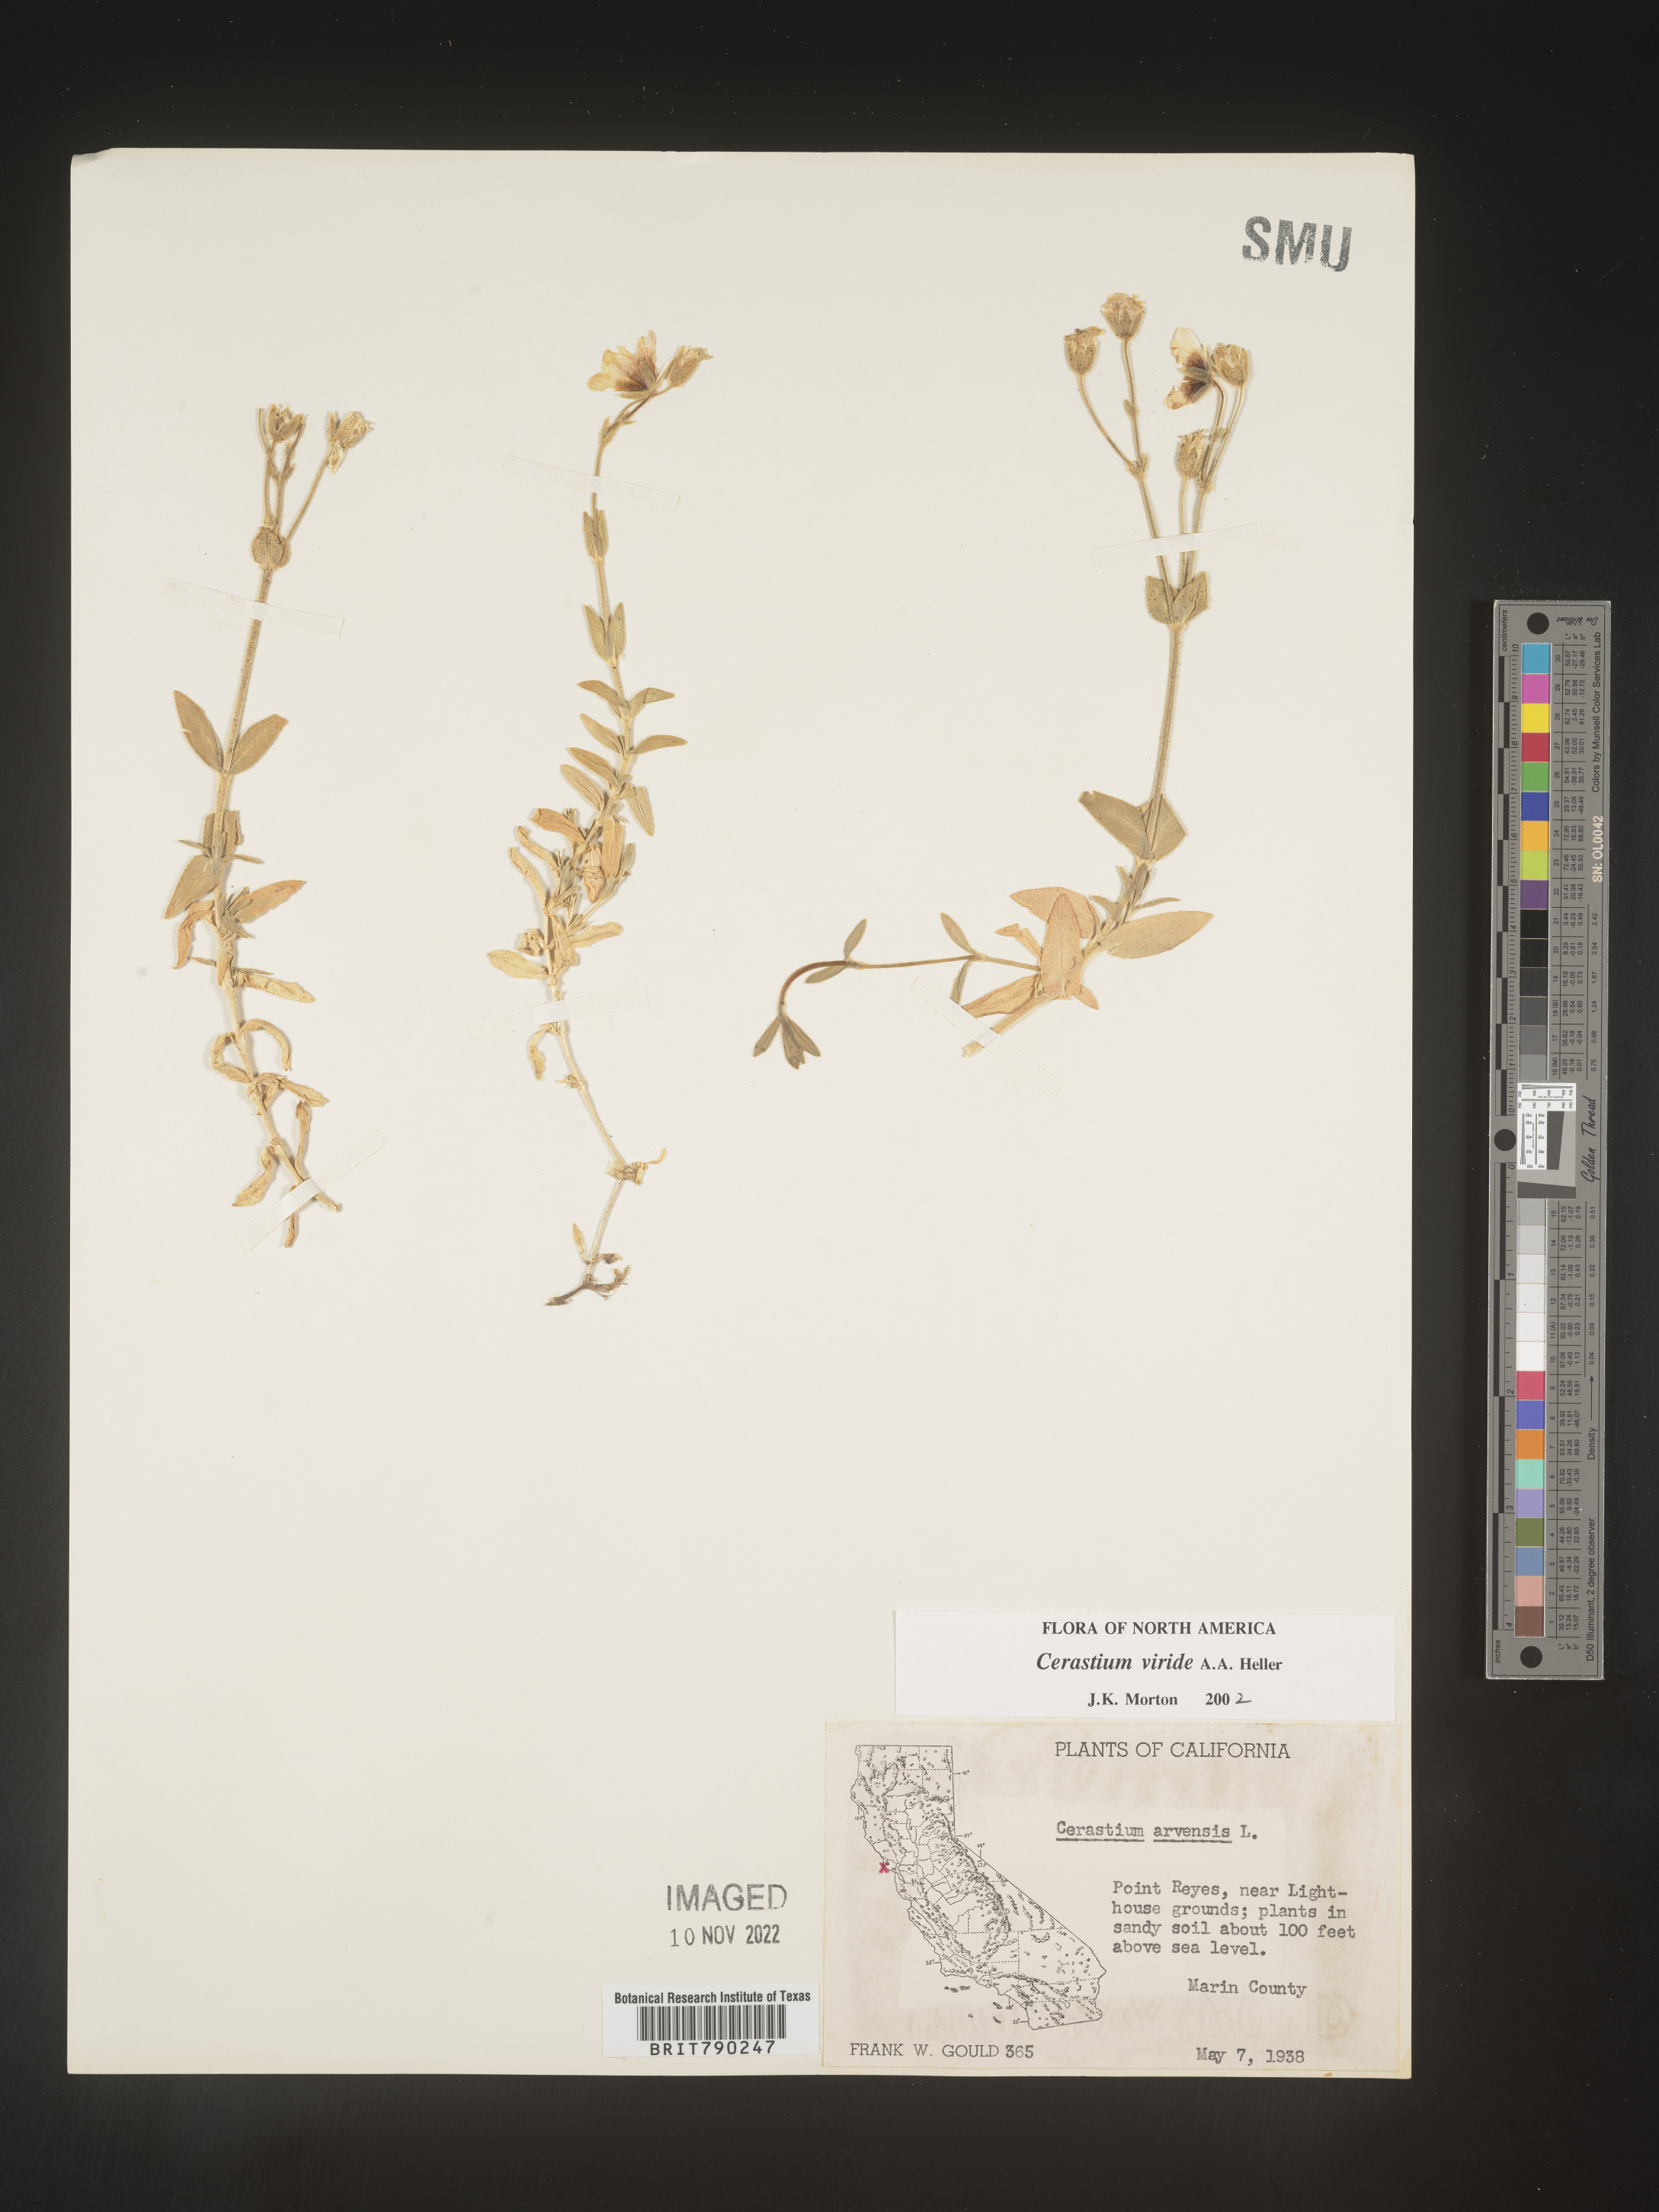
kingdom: Plantae
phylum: Tracheophyta
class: Magnoliopsida
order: Caryophyllales
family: Caryophyllaceae
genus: Cerastium
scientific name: Cerastium viride
